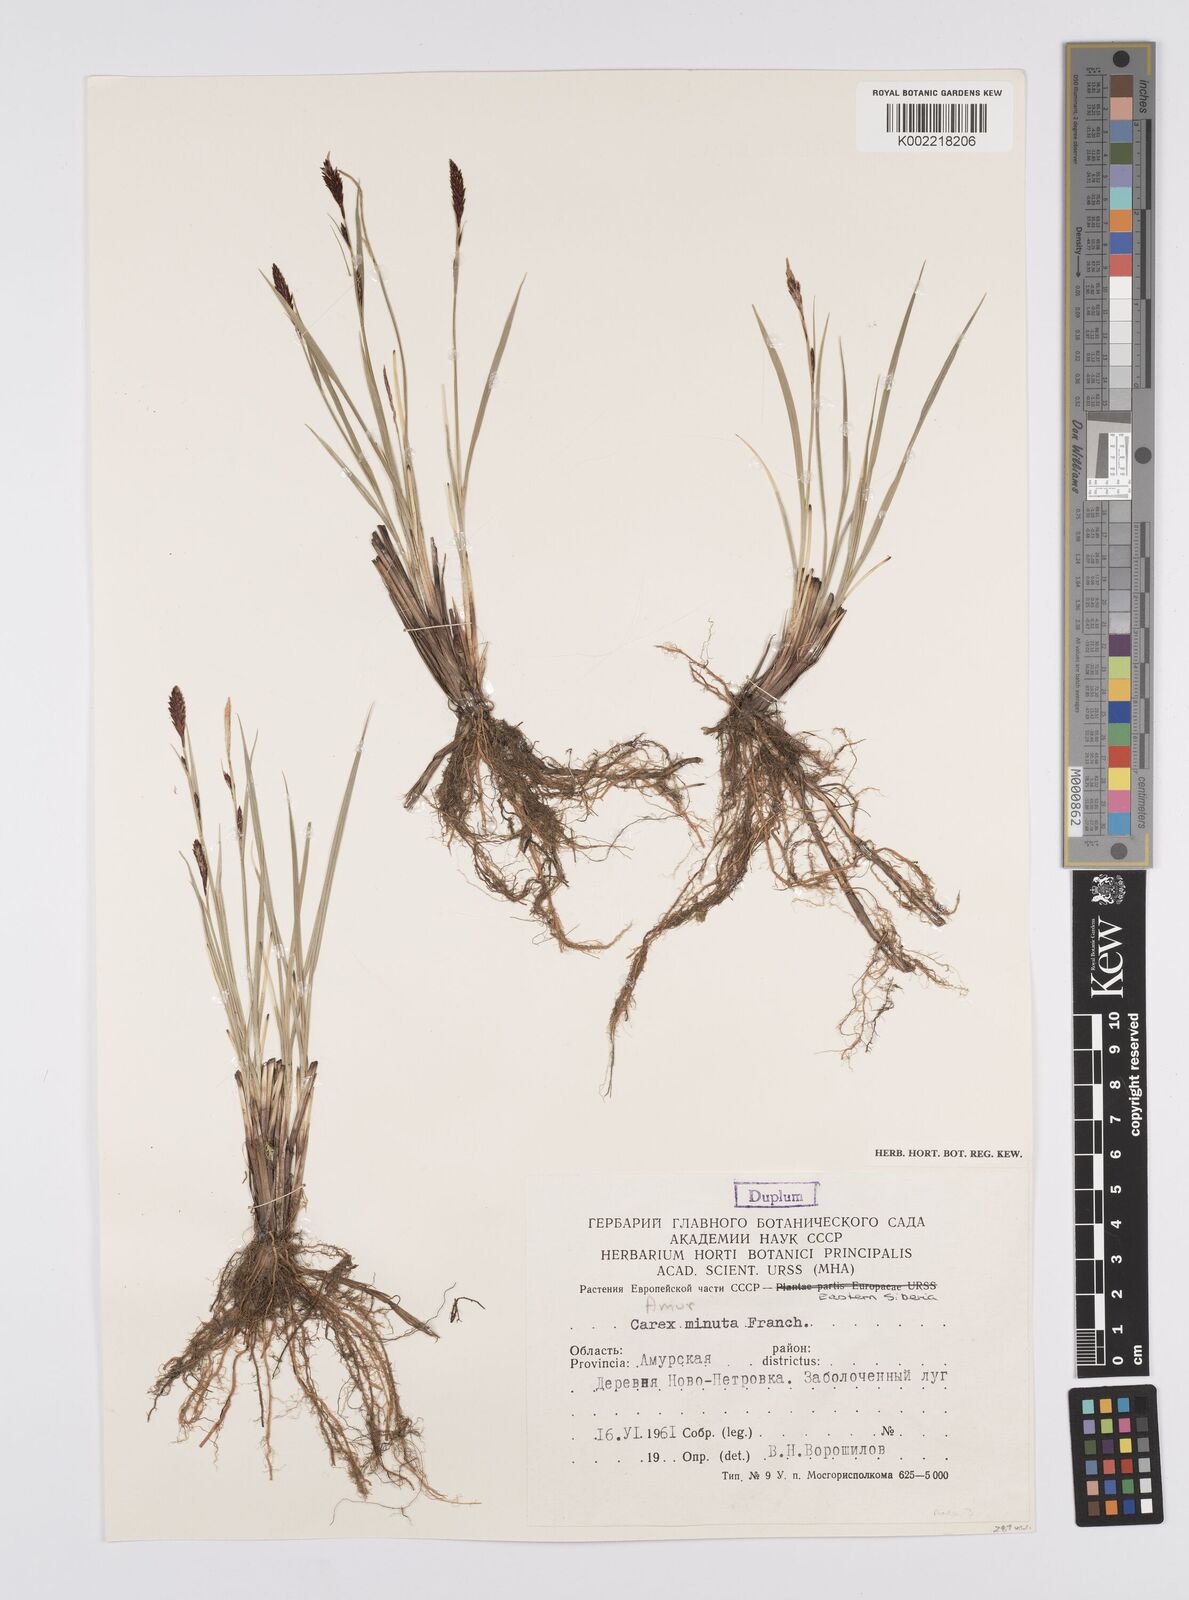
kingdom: Plantae
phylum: Tracheophyta
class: Liliopsida
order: Poales
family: Cyperaceae
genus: Carex
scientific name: Carex
